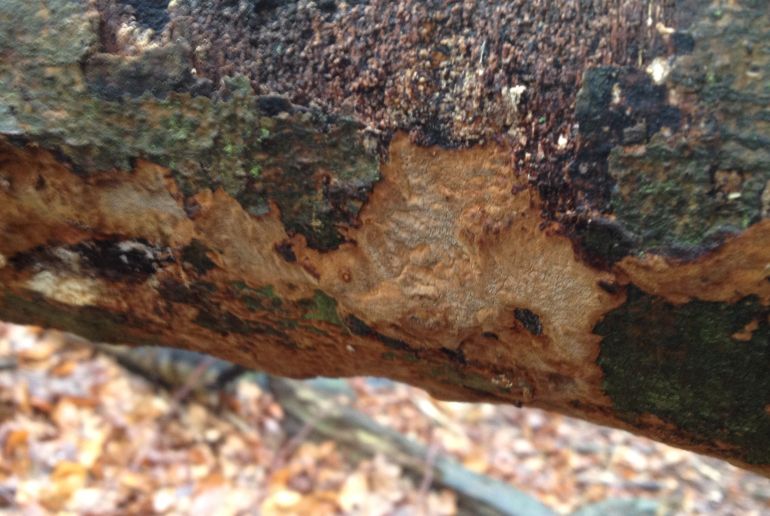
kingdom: Fungi
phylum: Basidiomycota
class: Agaricomycetes
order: Hymenochaetales
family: Hymenochaetaceae
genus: Fuscoporia
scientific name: Fuscoporia ferrea
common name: skorpe-ildporesvamp
